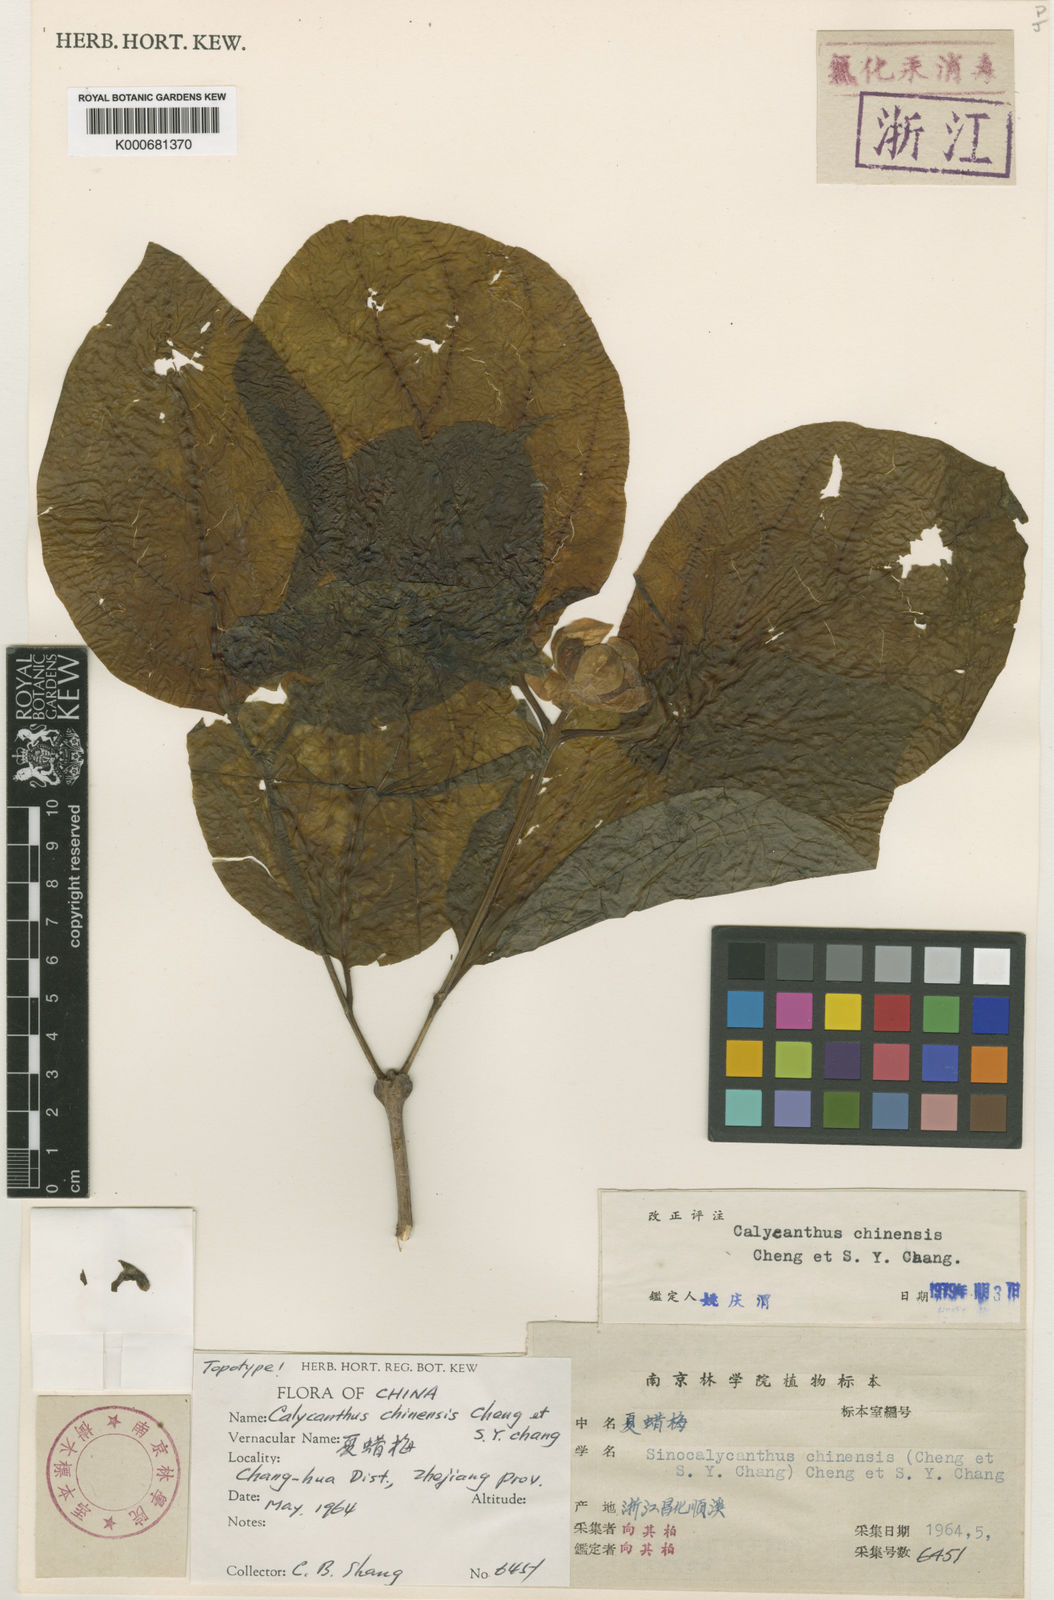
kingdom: Plantae
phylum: Tracheophyta
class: Magnoliopsida
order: Laurales
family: Calycanthaceae
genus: Calycanthus
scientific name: Calycanthus chinensis
